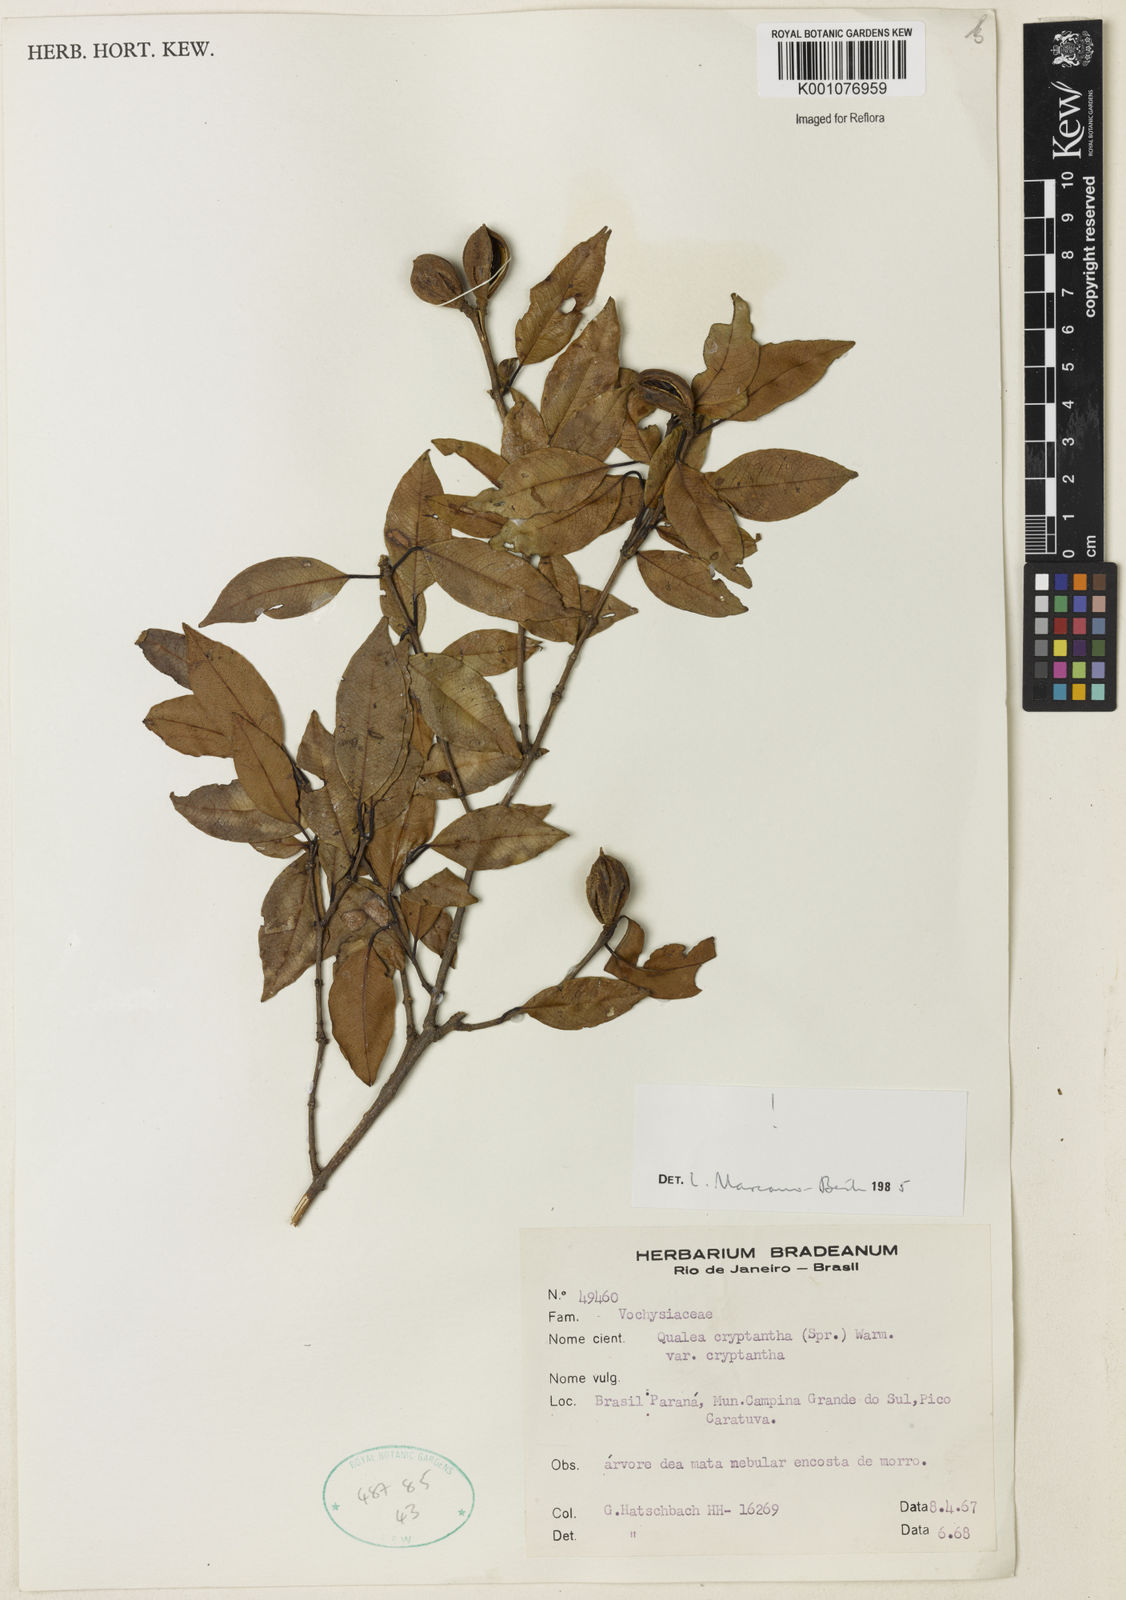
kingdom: Plantae
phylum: Tracheophyta
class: Magnoliopsida
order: Myrtales
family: Vochysiaceae
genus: Qualea
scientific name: Qualea cryptantha
